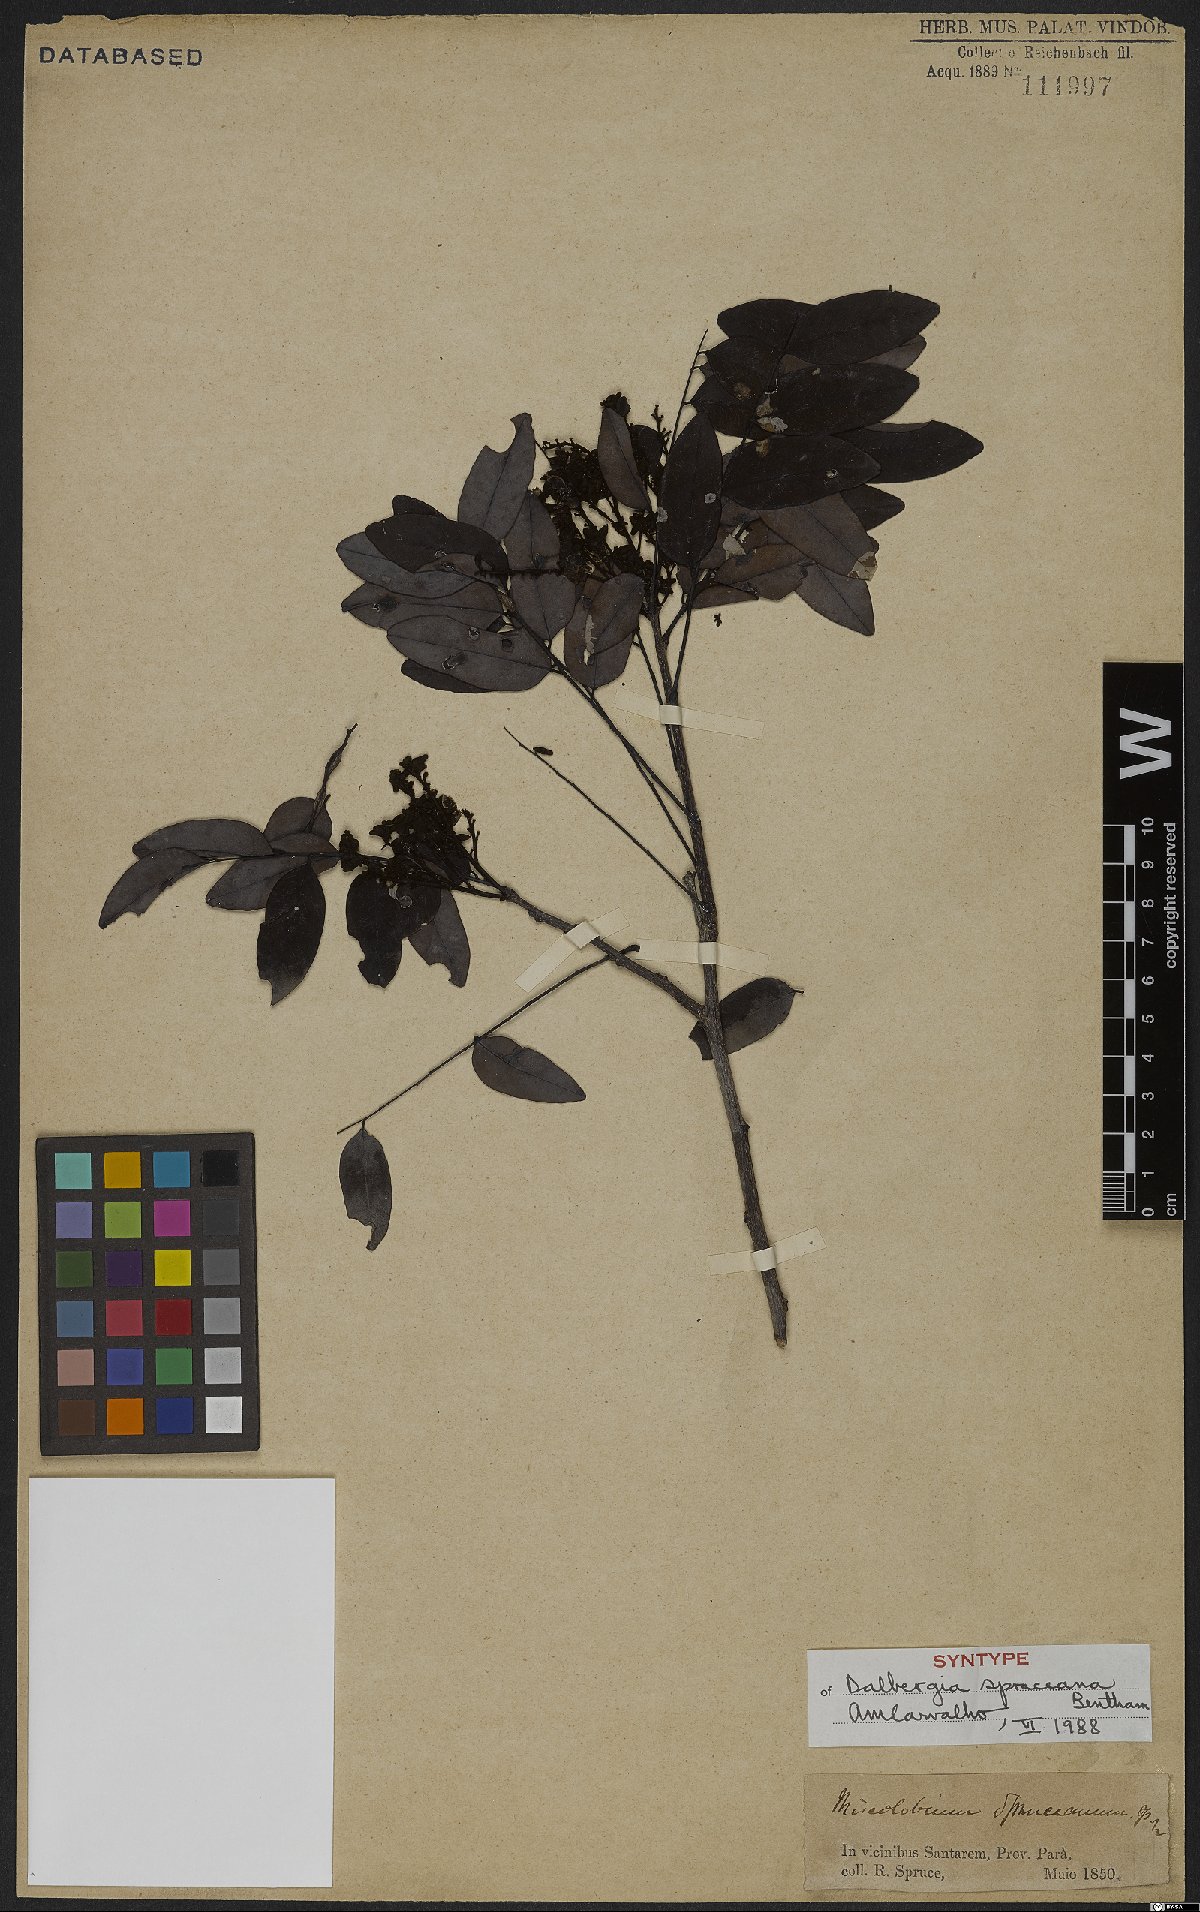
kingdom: Plantae
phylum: Tracheophyta
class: Magnoliopsida
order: Fabales
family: Fabaceae
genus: Dalbergia
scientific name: Dalbergia spruceana
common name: Amazon rosewood
